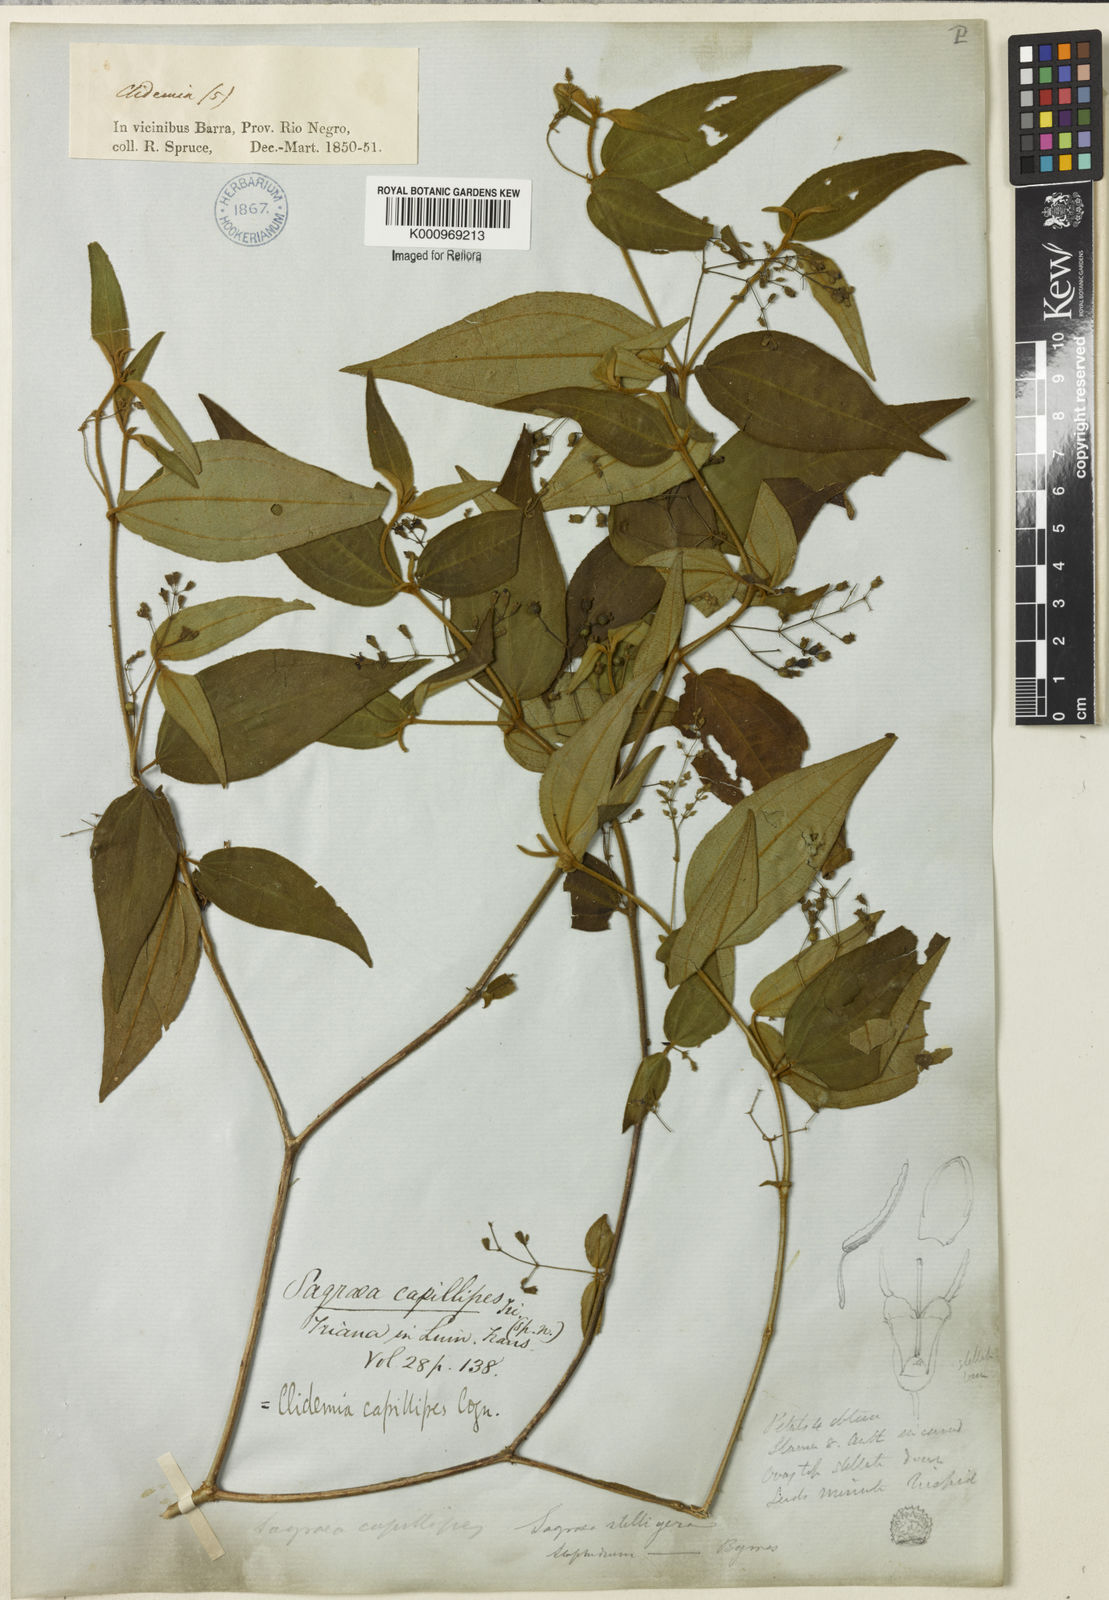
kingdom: Plantae
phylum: Tracheophyta
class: Magnoliopsida
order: Myrtales
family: Melastomataceae
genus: Miconia
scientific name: Miconia capillipes
